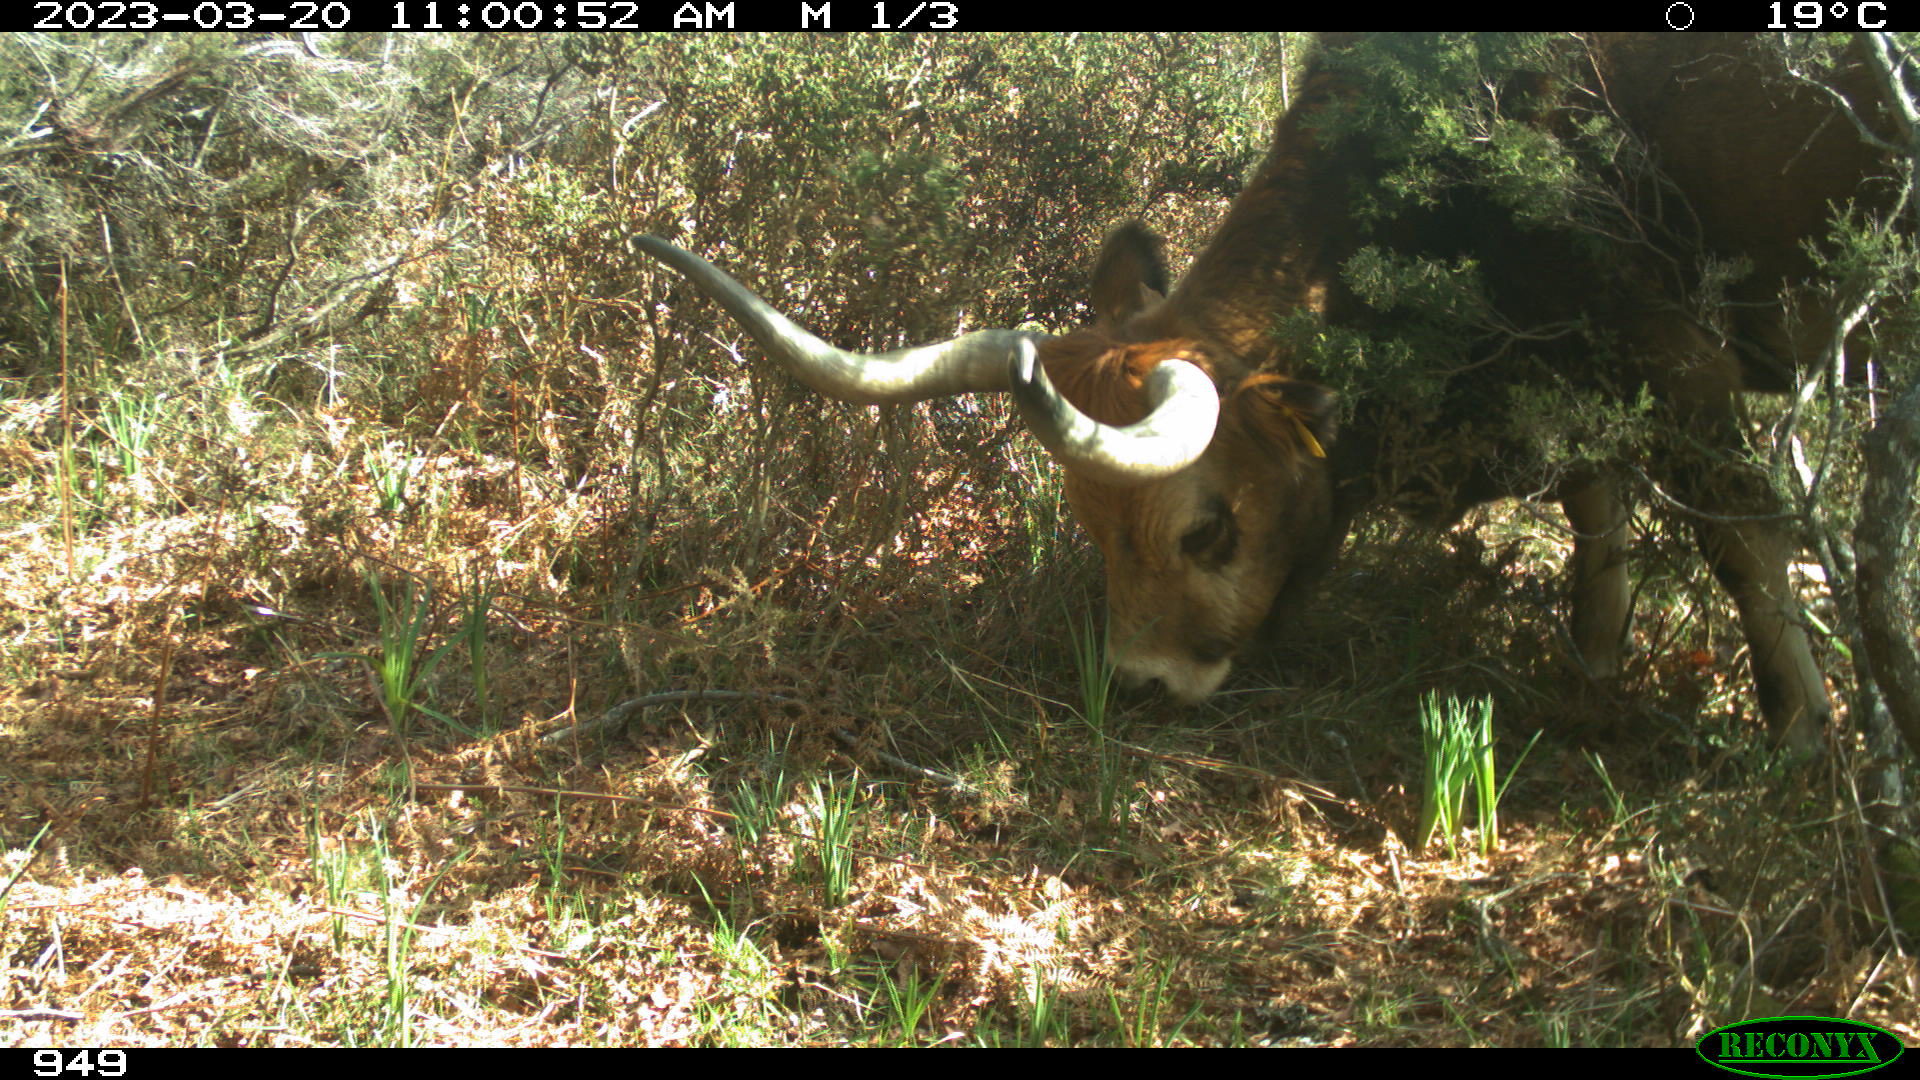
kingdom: Animalia
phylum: Chordata
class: Mammalia
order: Artiodactyla
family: Bovidae
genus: Bos
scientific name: Bos taurus
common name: Domesticated cattle
